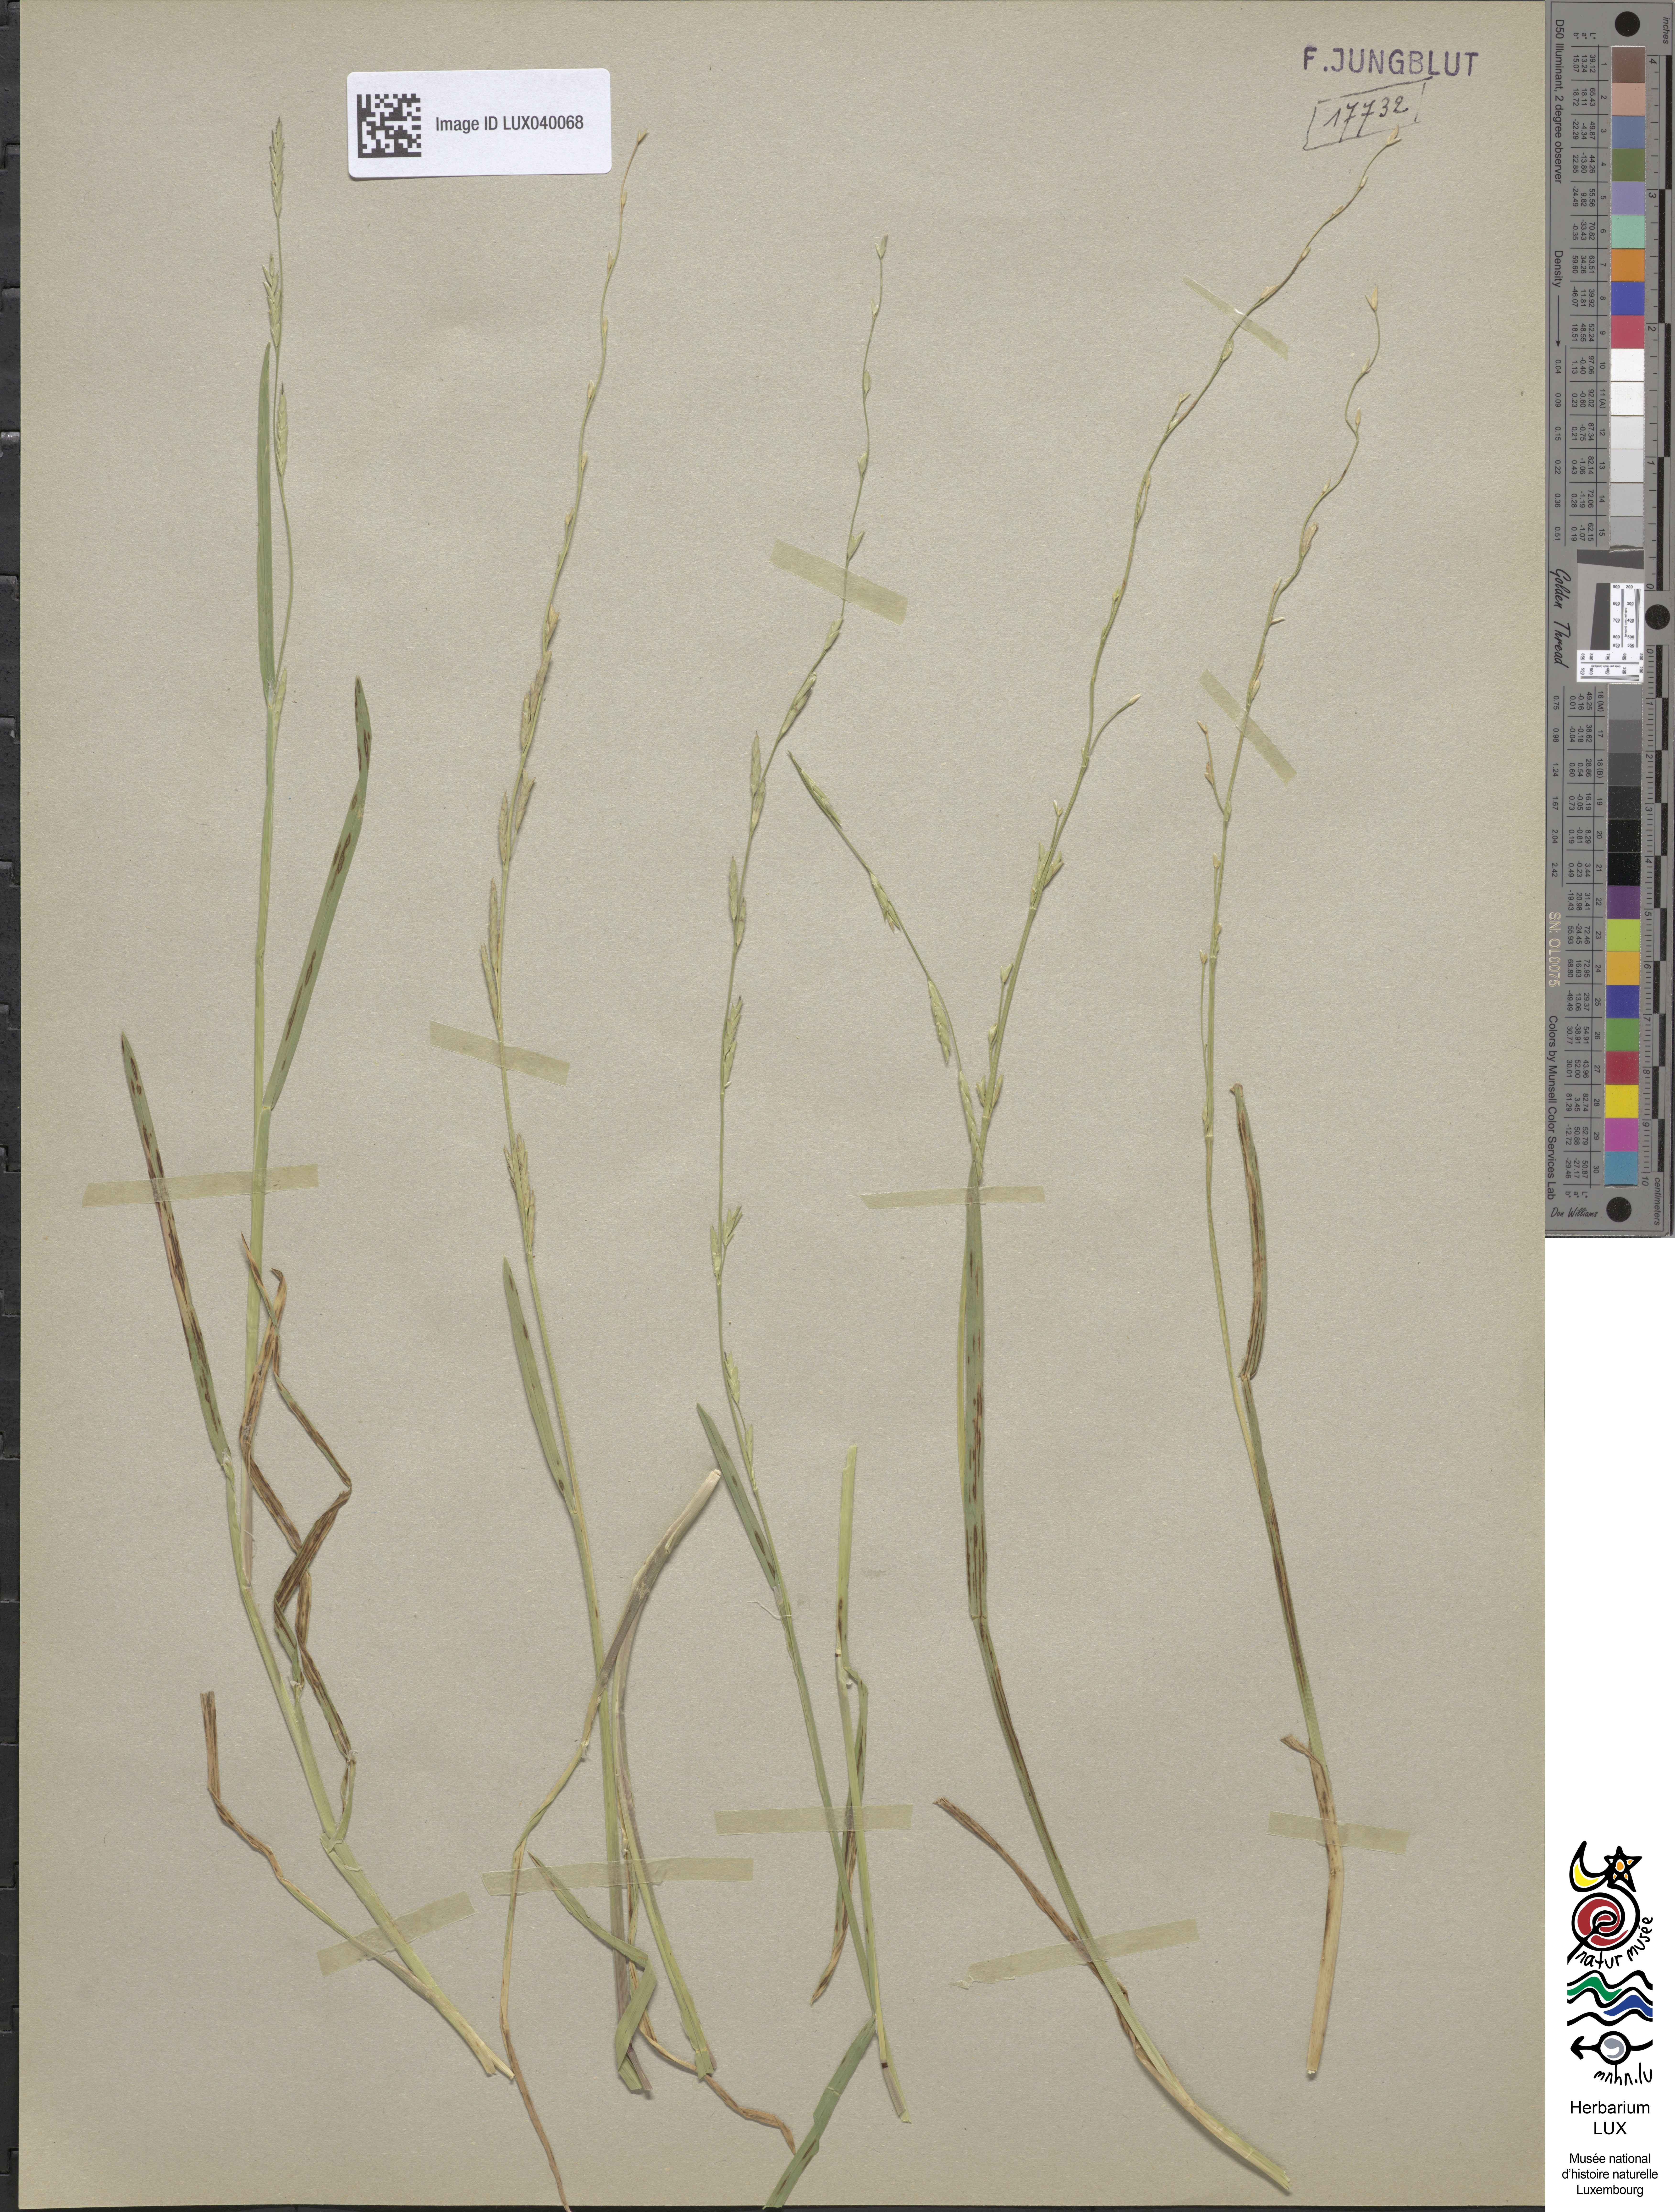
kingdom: Plantae
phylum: Tracheophyta
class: Liliopsida
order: Poales
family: Poaceae
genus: Glyceria
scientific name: Glyceria declinata
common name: Small sweet-grass
